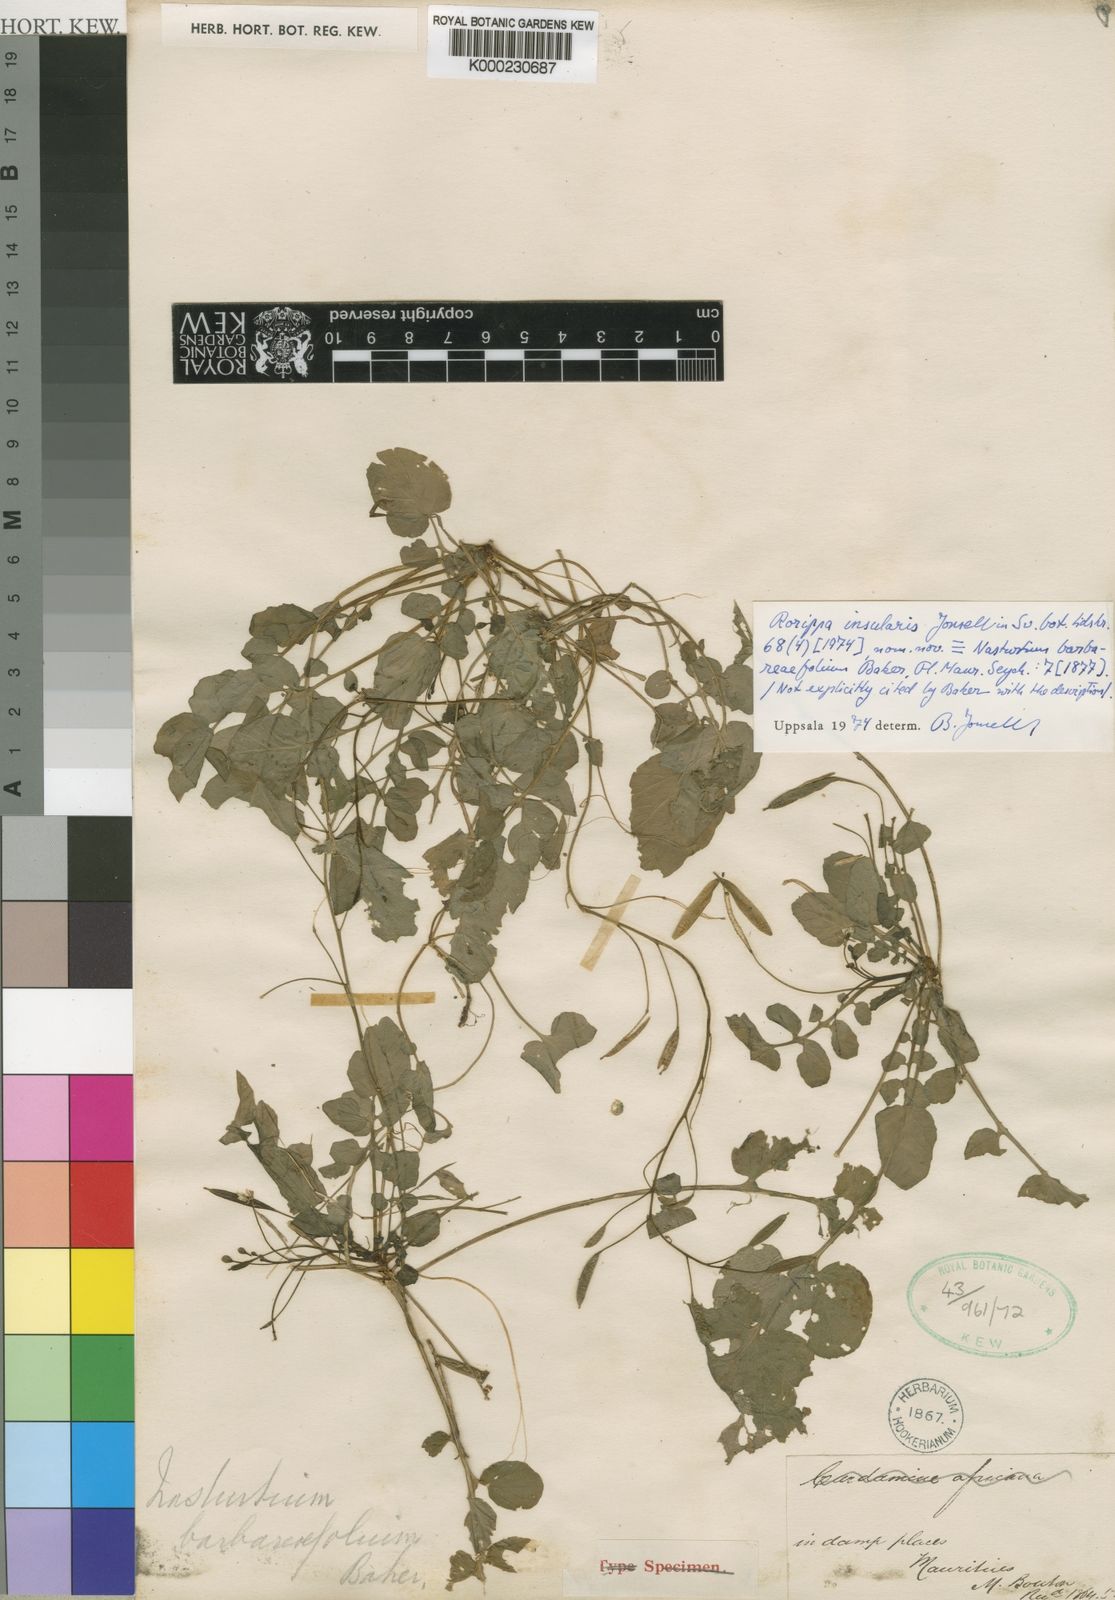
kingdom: Plantae
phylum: Tracheophyta
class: Magnoliopsida
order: Brassicales
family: Brassicaceae
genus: Rorippa
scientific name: Rorippa insularis
